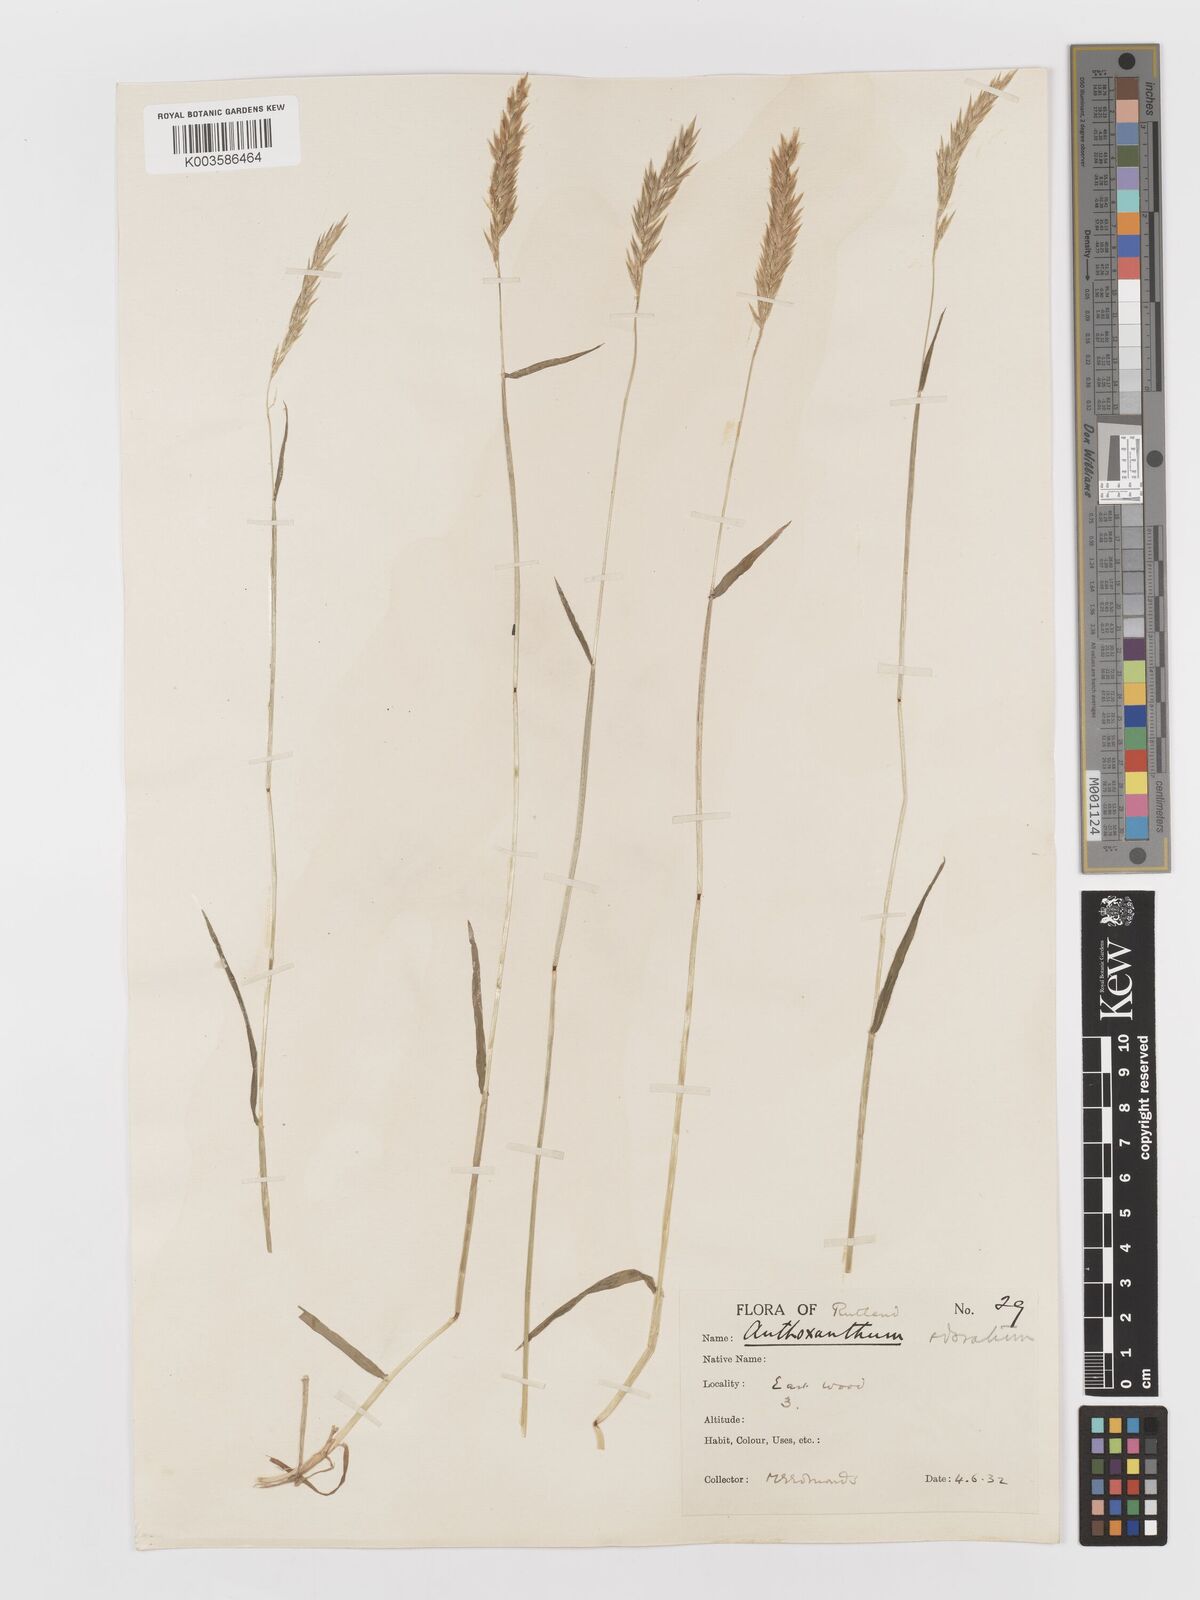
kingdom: Plantae
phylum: Tracheophyta
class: Liliopsida
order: Poales
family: Poaceae
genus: Anthoxanthum
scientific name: Anthoxanthum odoratum
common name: Sweet vernalgrass
